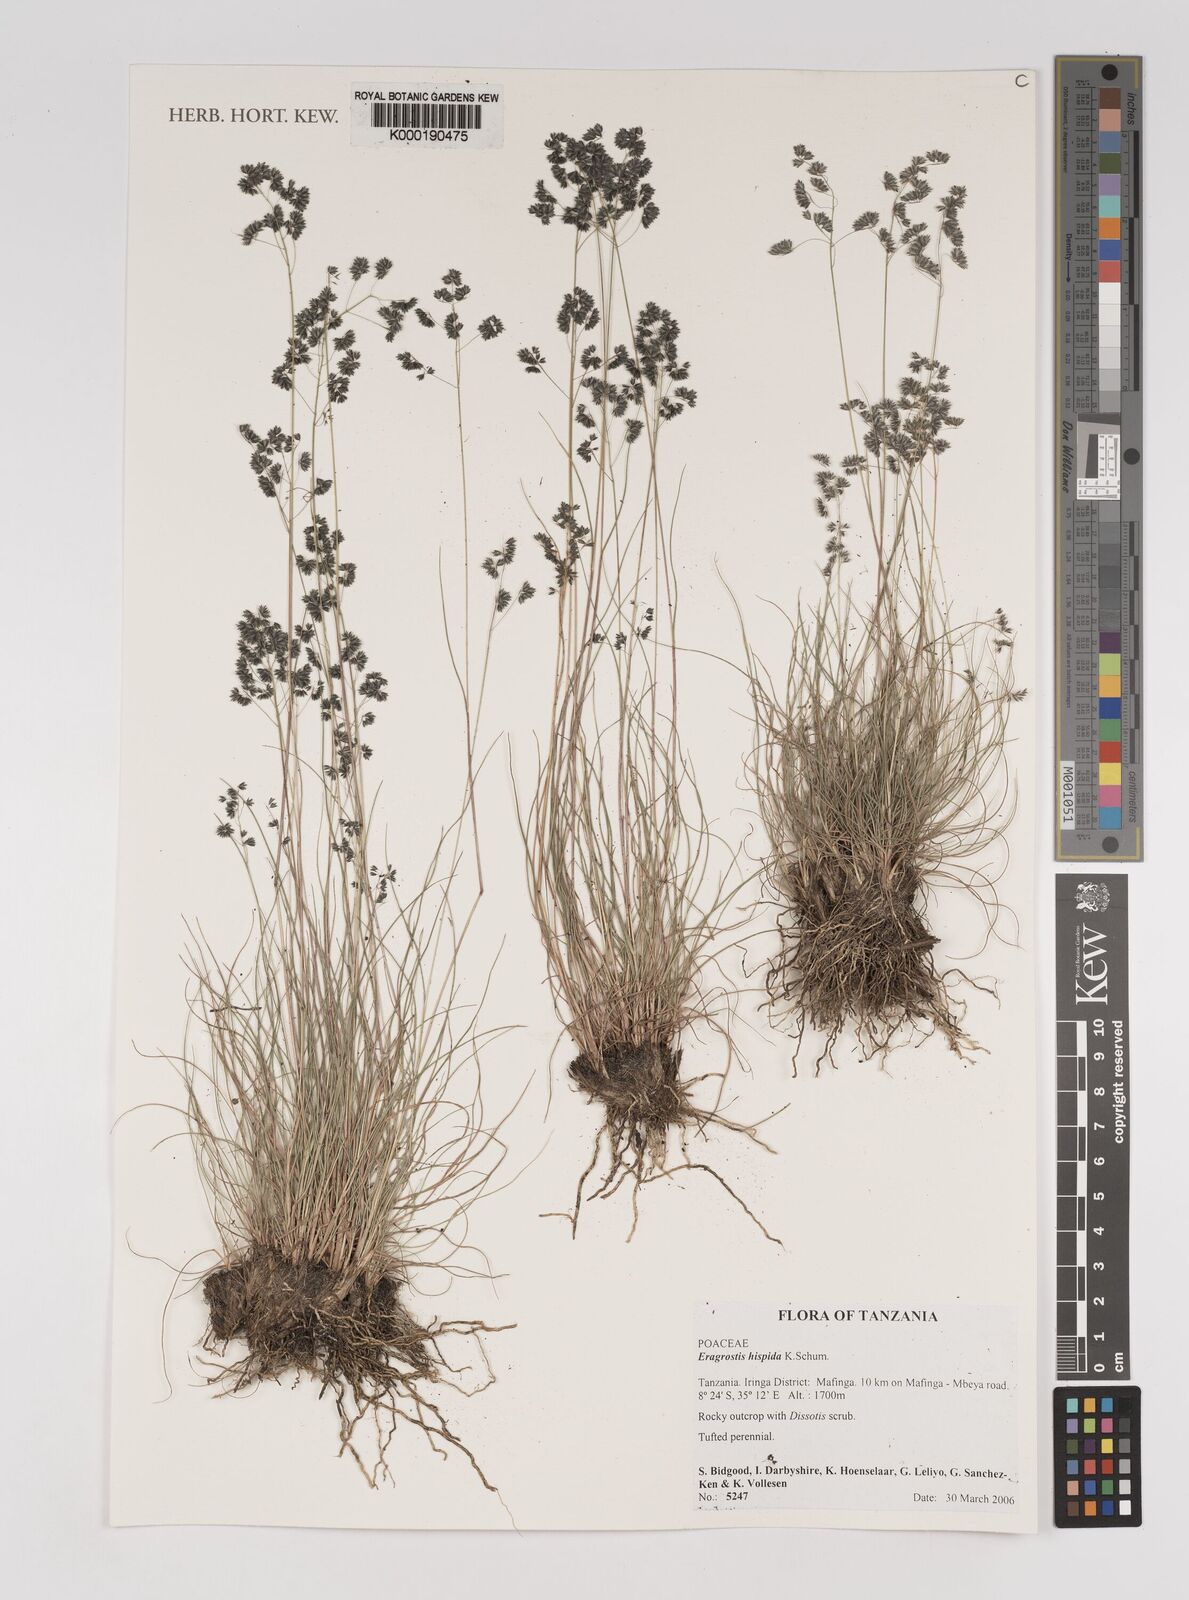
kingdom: Plantae
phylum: Tracheophyta
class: Liliopsida
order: Poales
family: Poaceae
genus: Eragrostis
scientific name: Eragrostis hispida
